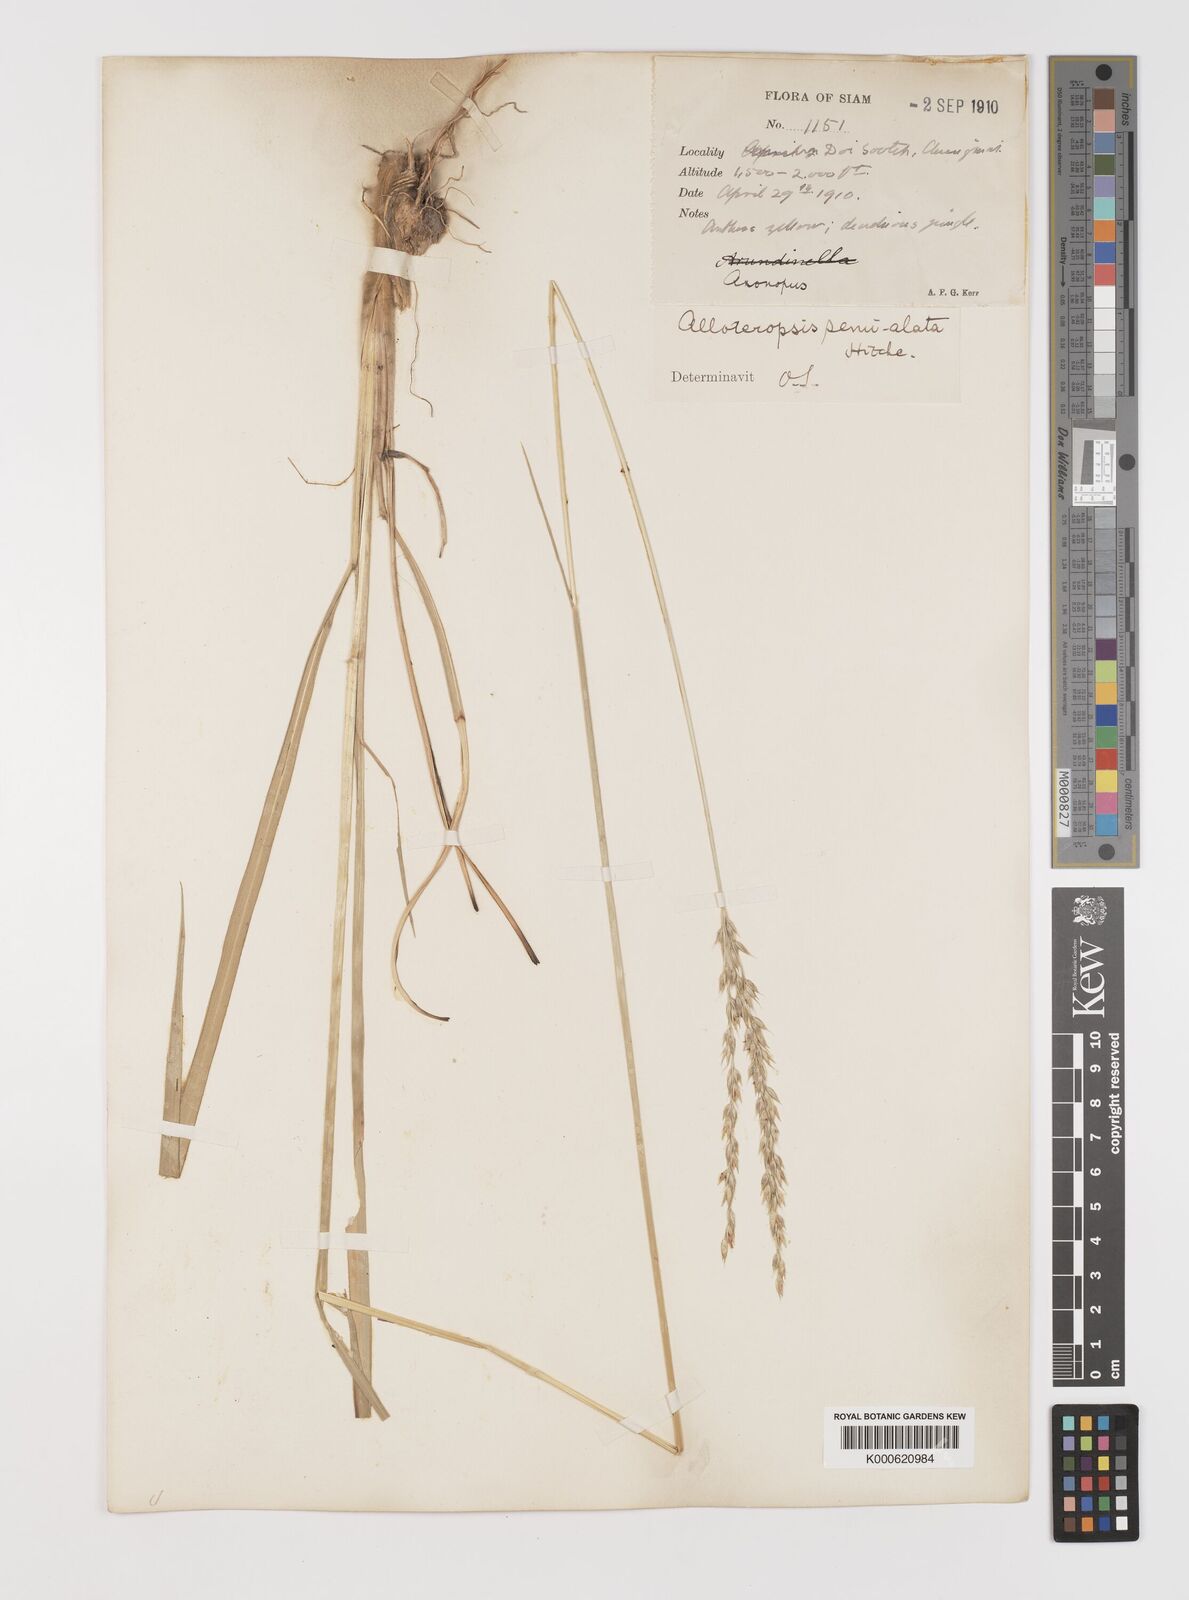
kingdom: Plantae
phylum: Tracheophyta
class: Liliopsida
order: Poales
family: Poaceae
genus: Alloteropsis
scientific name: Alloteropsis semialata
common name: Cockatoo grass
